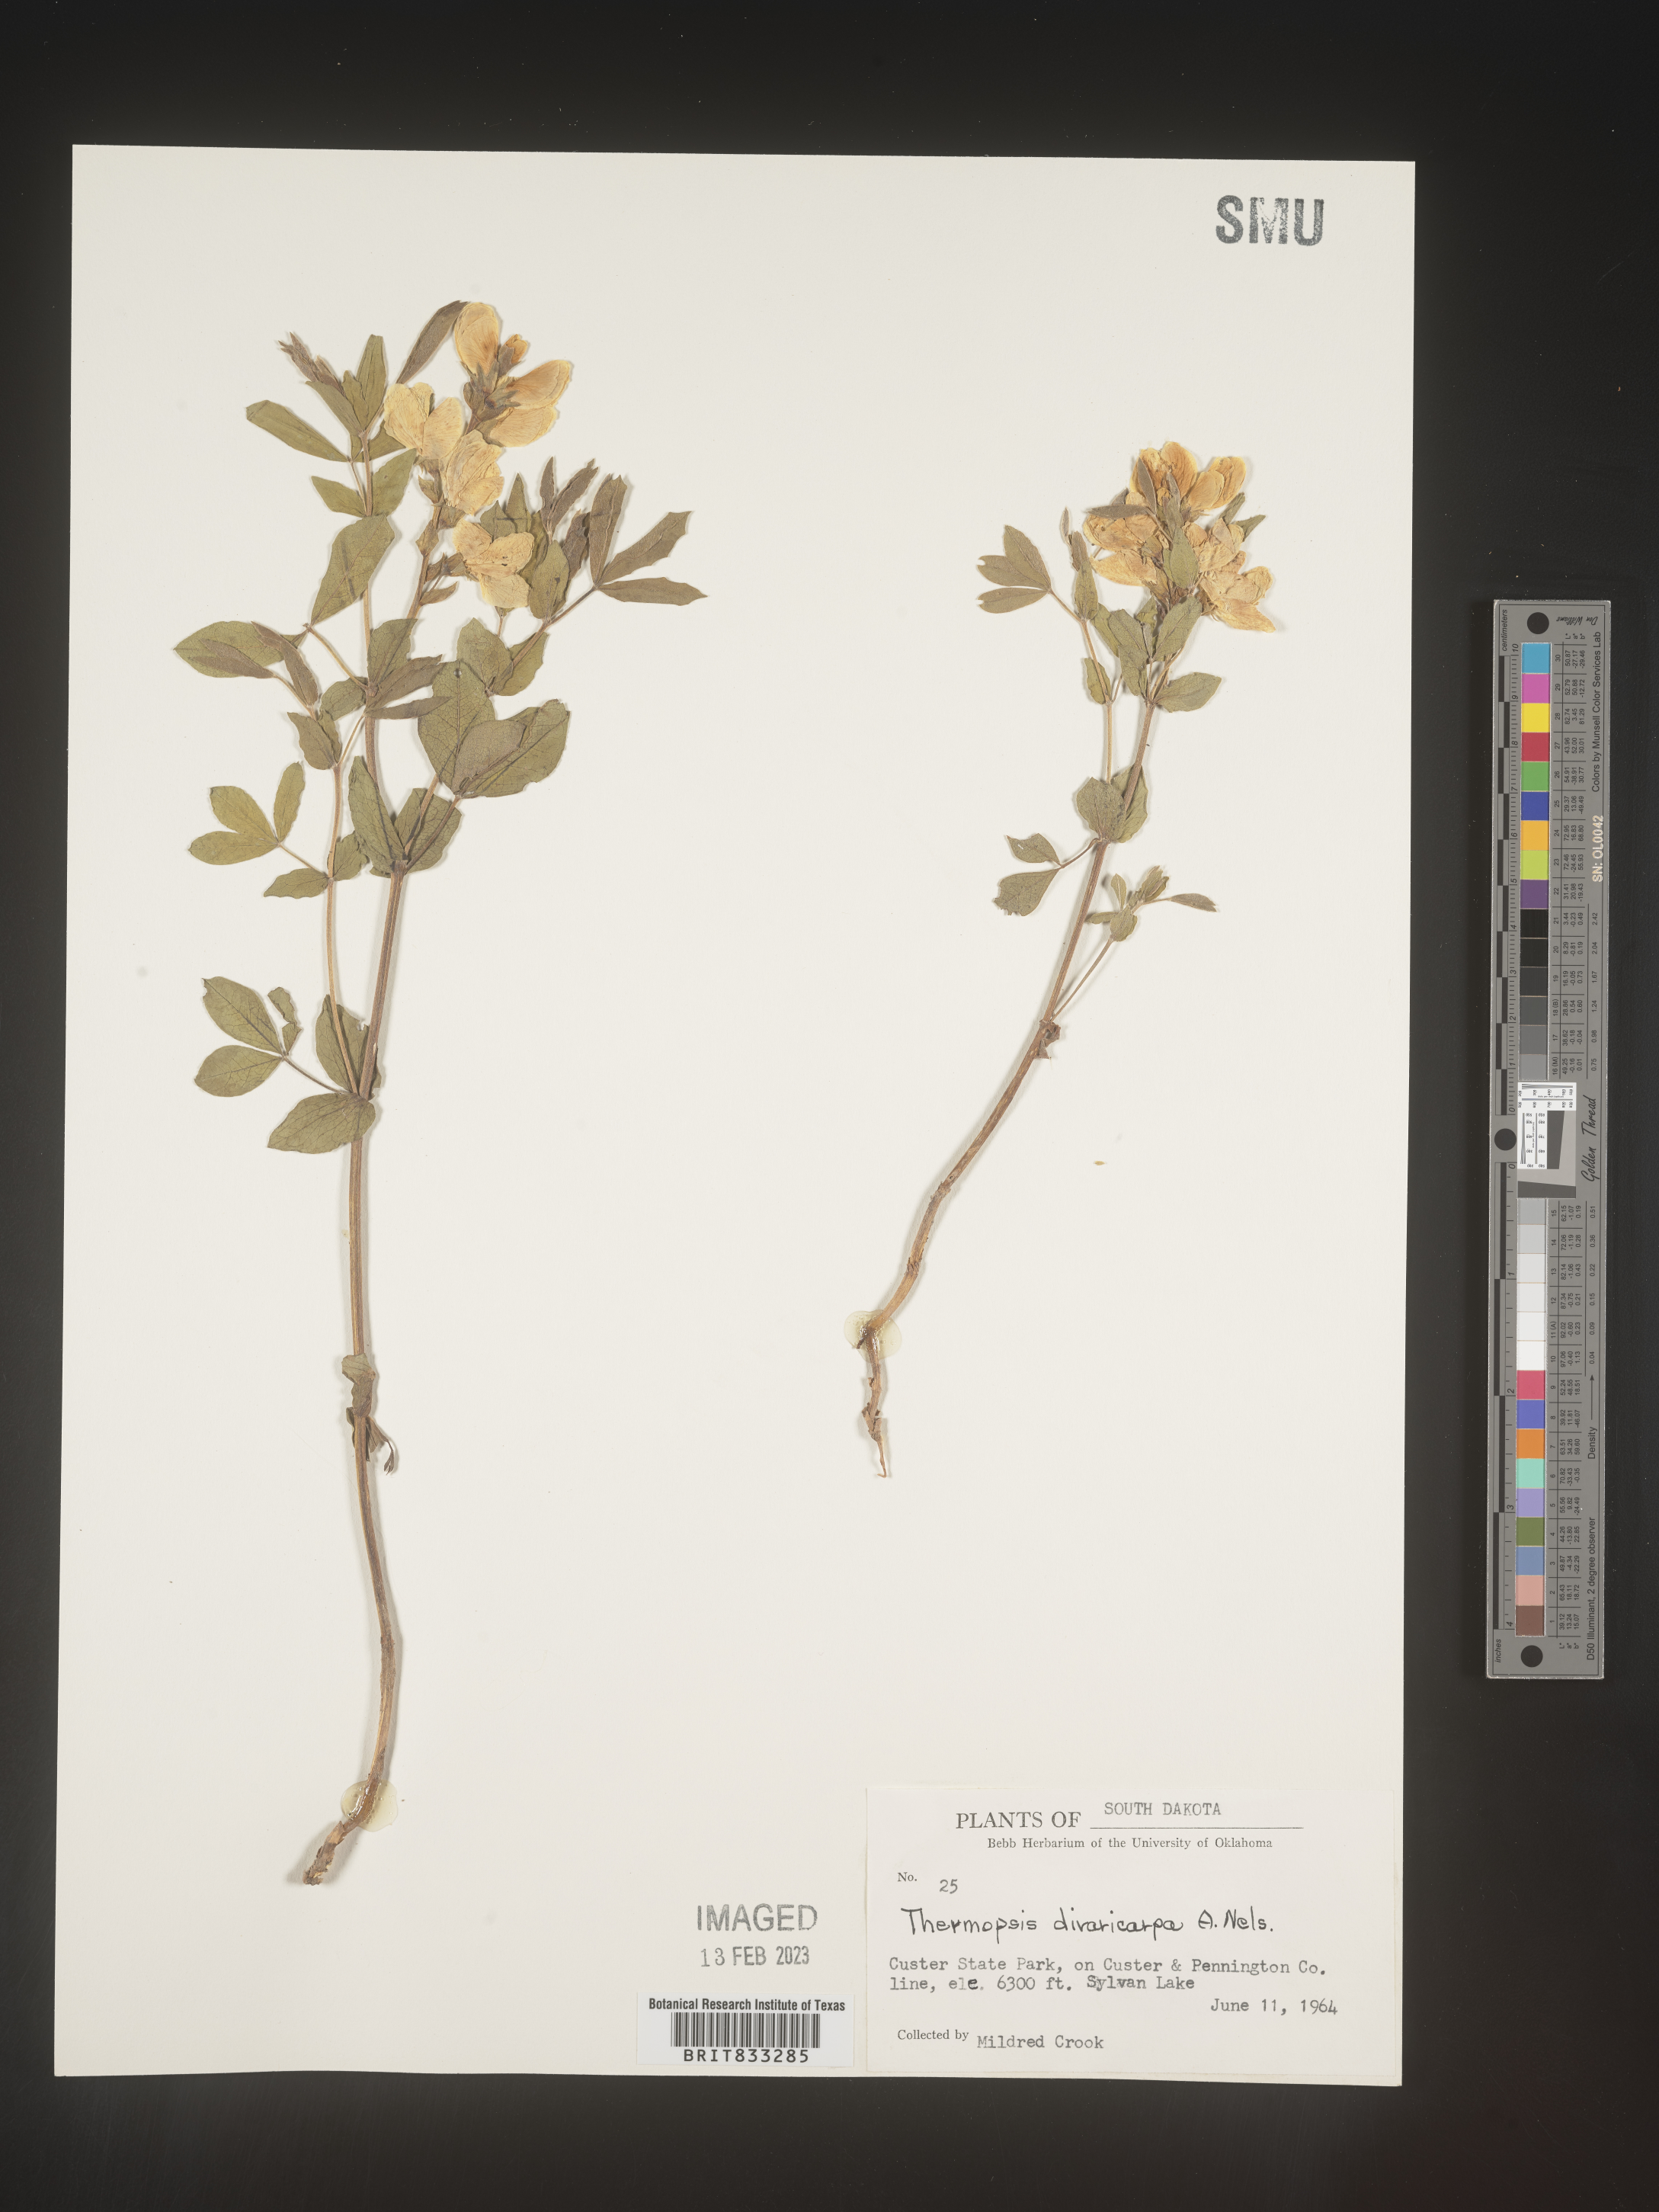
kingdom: Plantae
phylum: Tracheophyta
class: Magnoliopsida
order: Fabales
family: Fabaceae
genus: Thermopsis
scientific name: Thermopsis rhombifolia
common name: Circle-pod-pea
